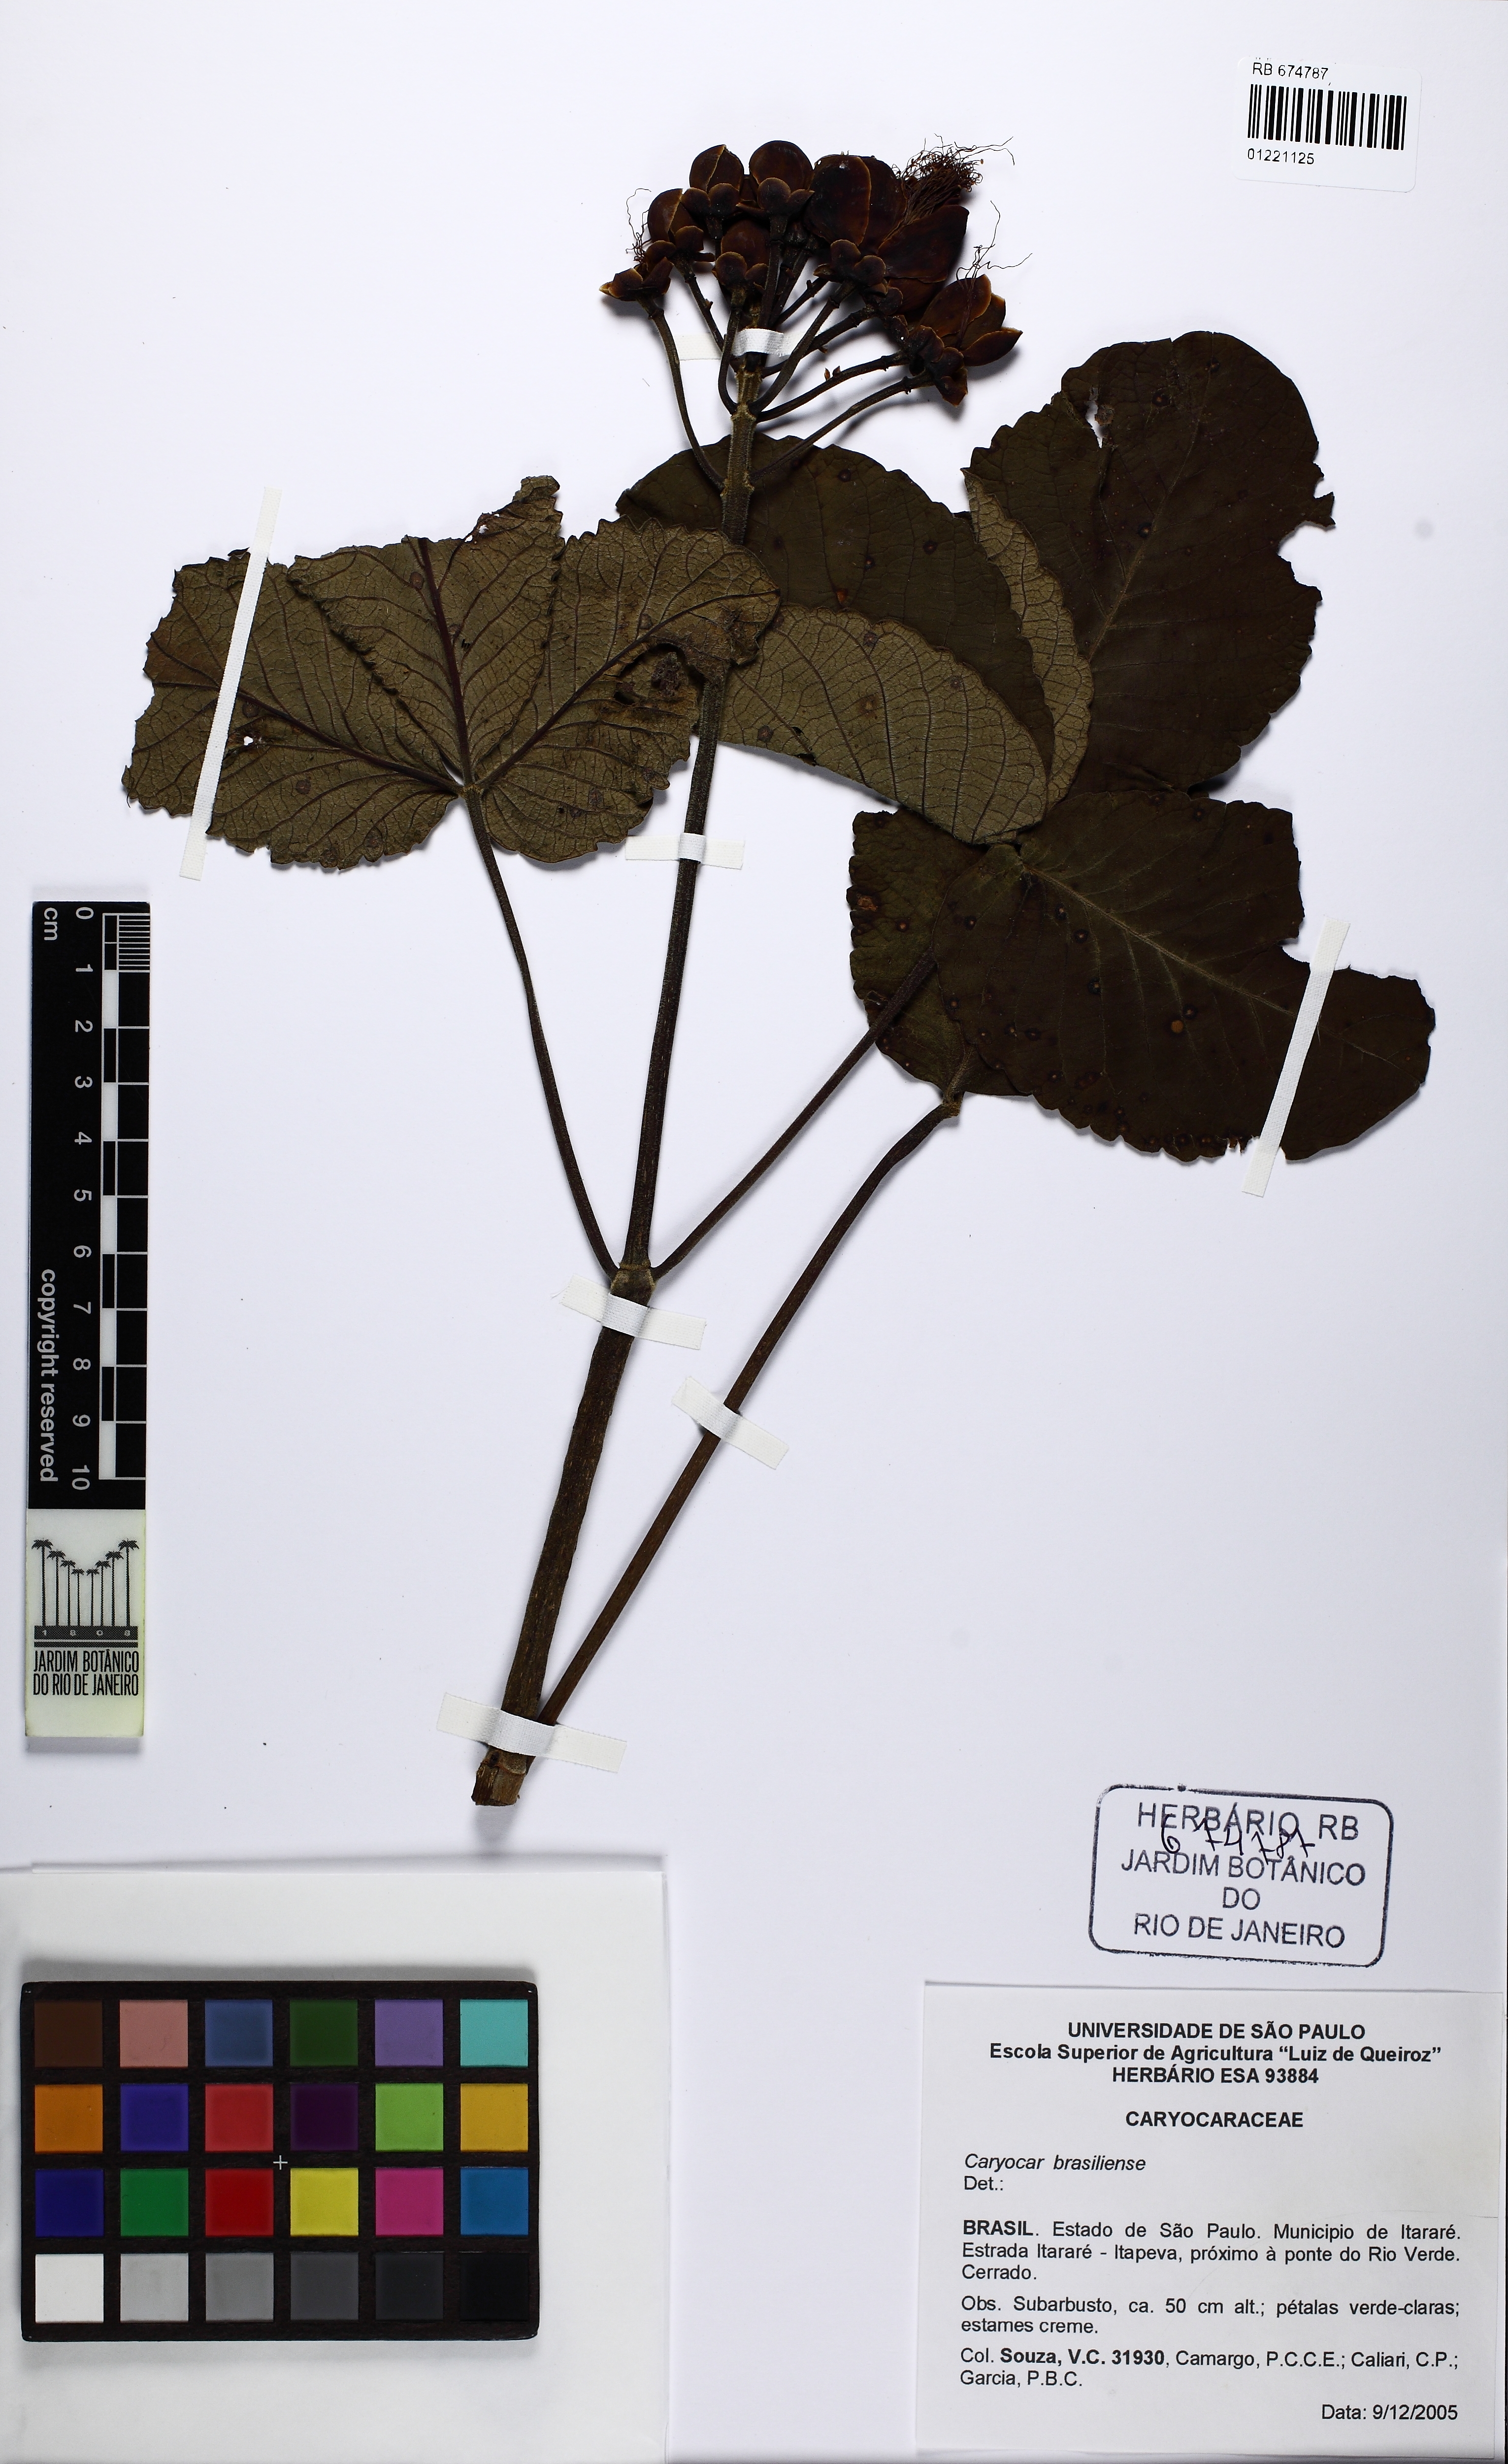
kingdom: Plantae
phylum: Tracheophyta
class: Magnoliopsida
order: Malpighiales
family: Caryocaraceae
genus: Caryocar
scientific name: Caryocar brasiliense
